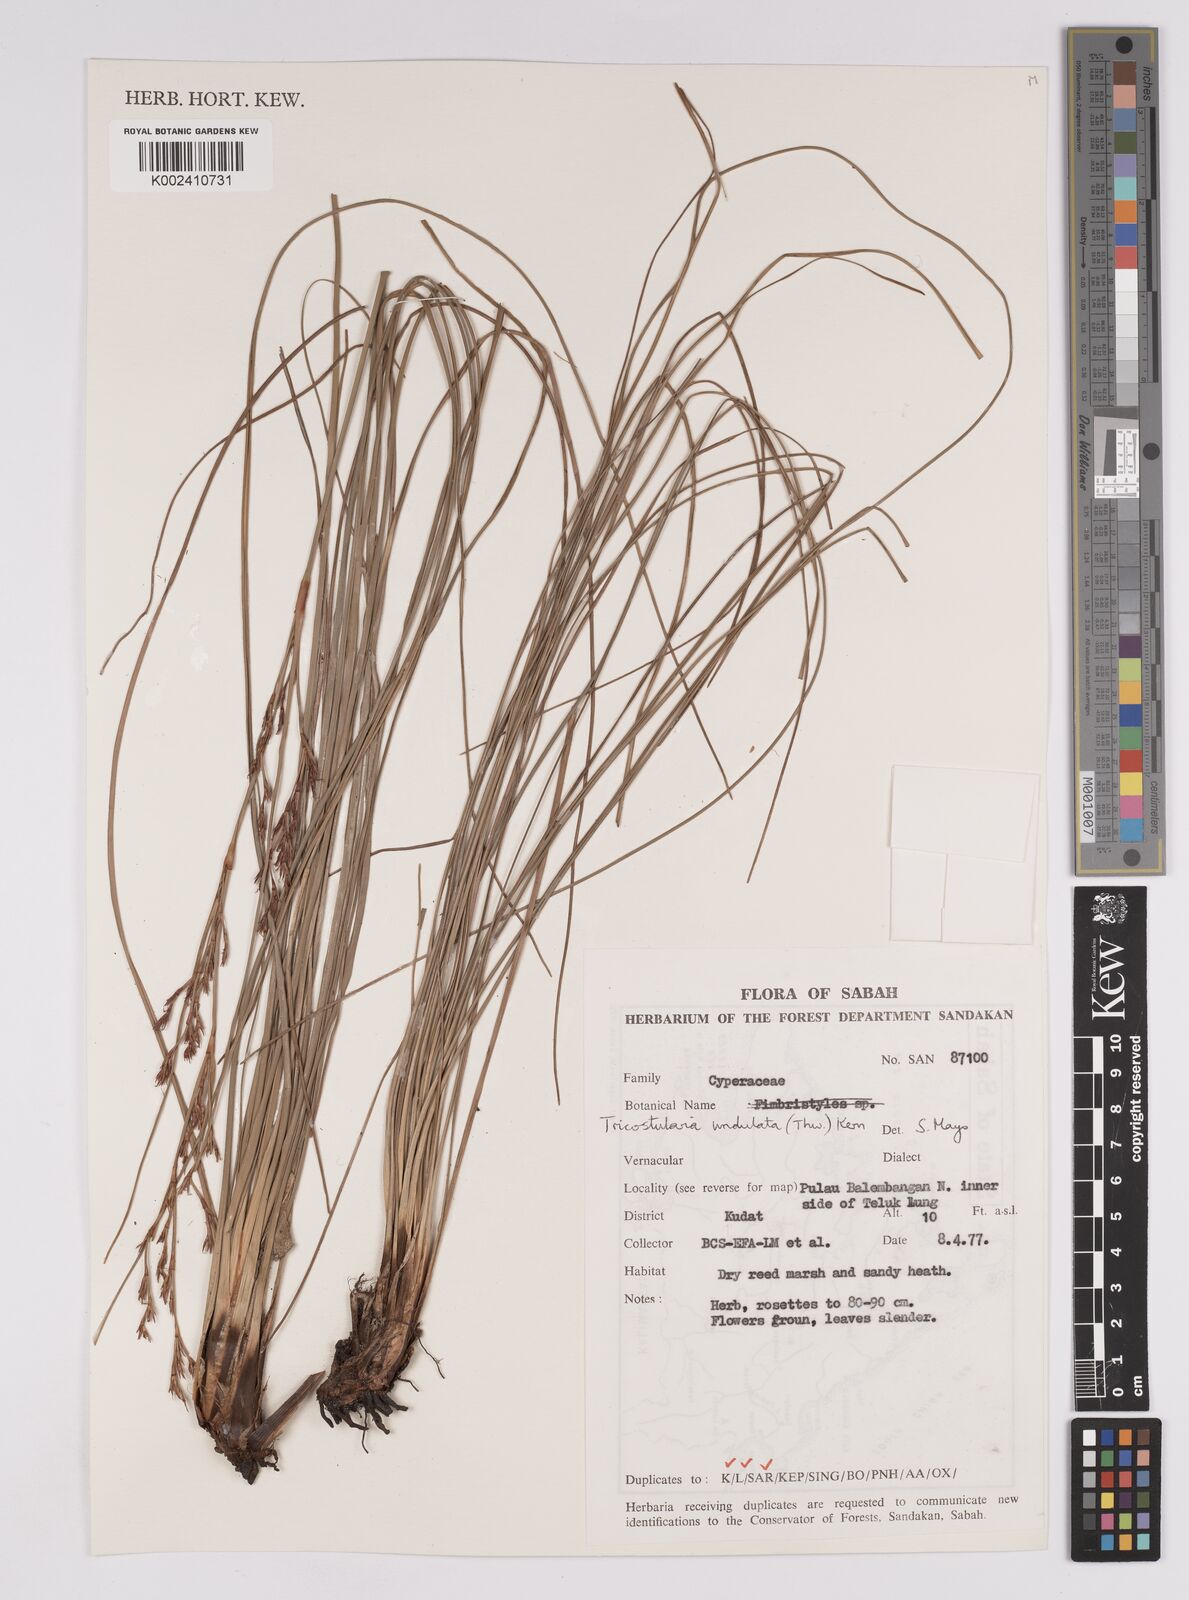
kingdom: Plantae
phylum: Tracheophyta
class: Liliopsida
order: Poales
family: Cyperaceae
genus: Anthelepis
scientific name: Anthelepis undulata
